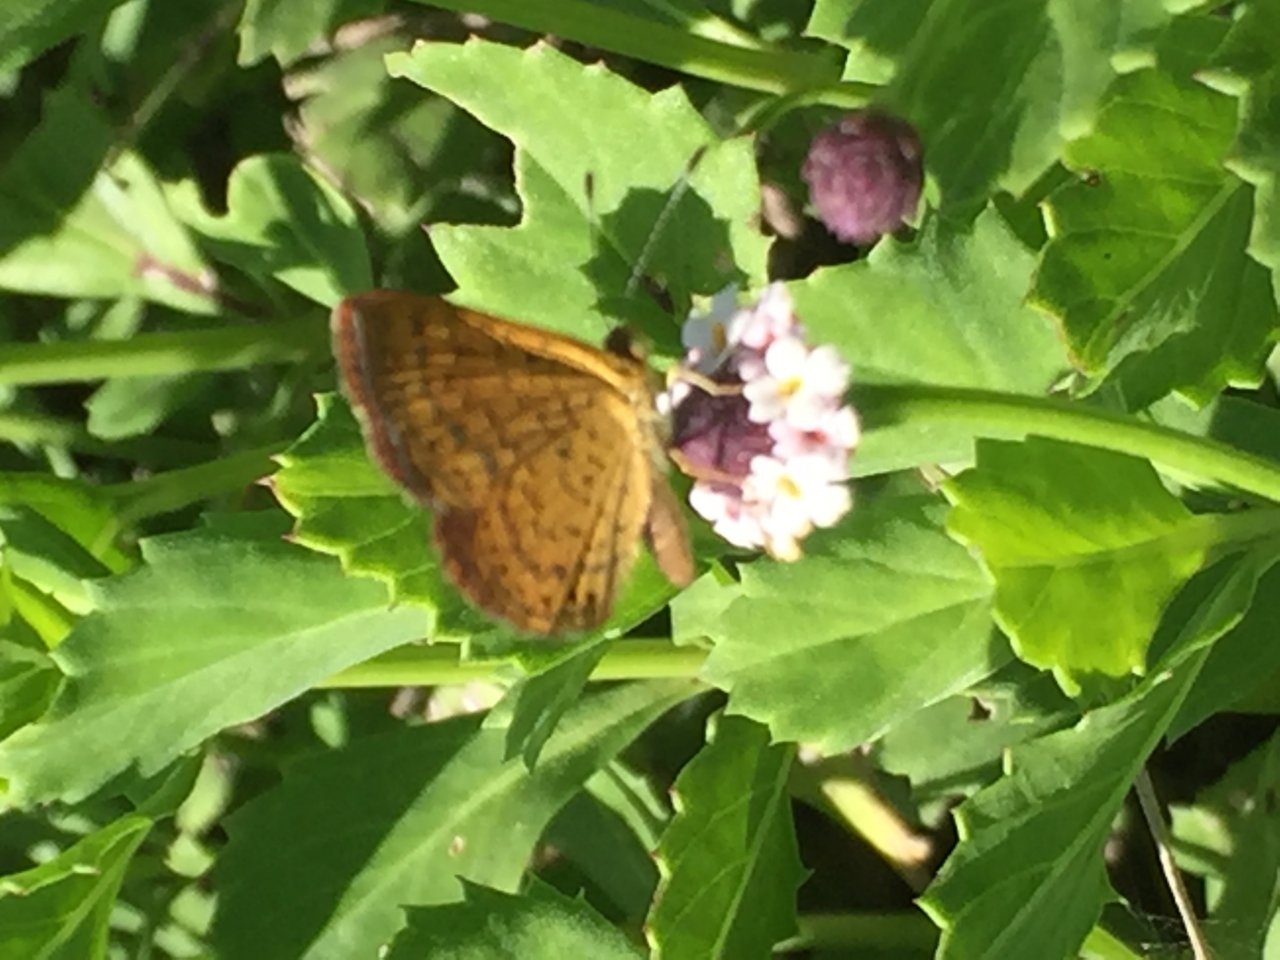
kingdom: Animalia
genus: Calephelis
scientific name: Calephelis nemesis
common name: Fatal Metalmark
